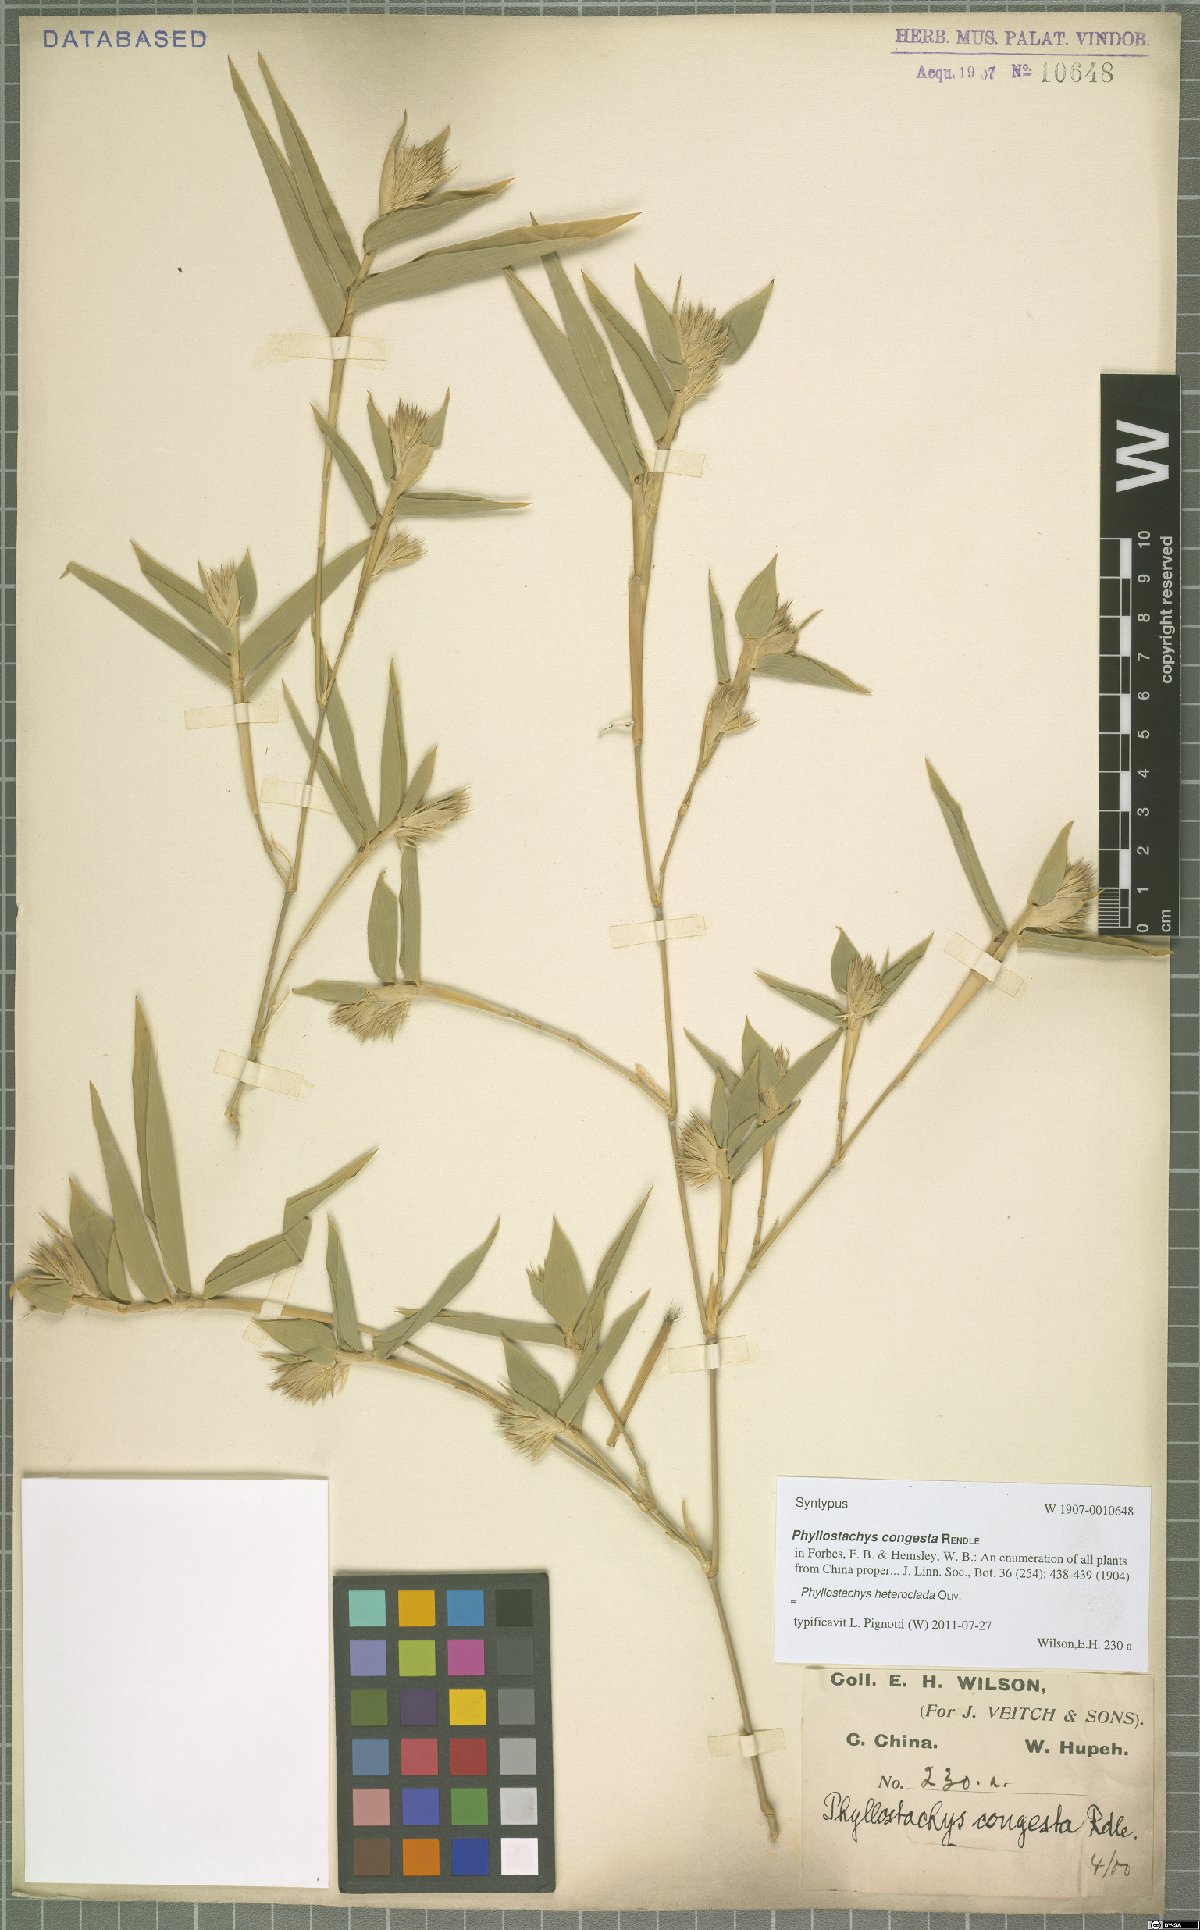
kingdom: Plantae
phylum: Tracheophyta
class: Liliopsida
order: Poales
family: Poaceae
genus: Phyllostachys
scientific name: Phyllostachys heteroclada
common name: Fishscale bamboo
